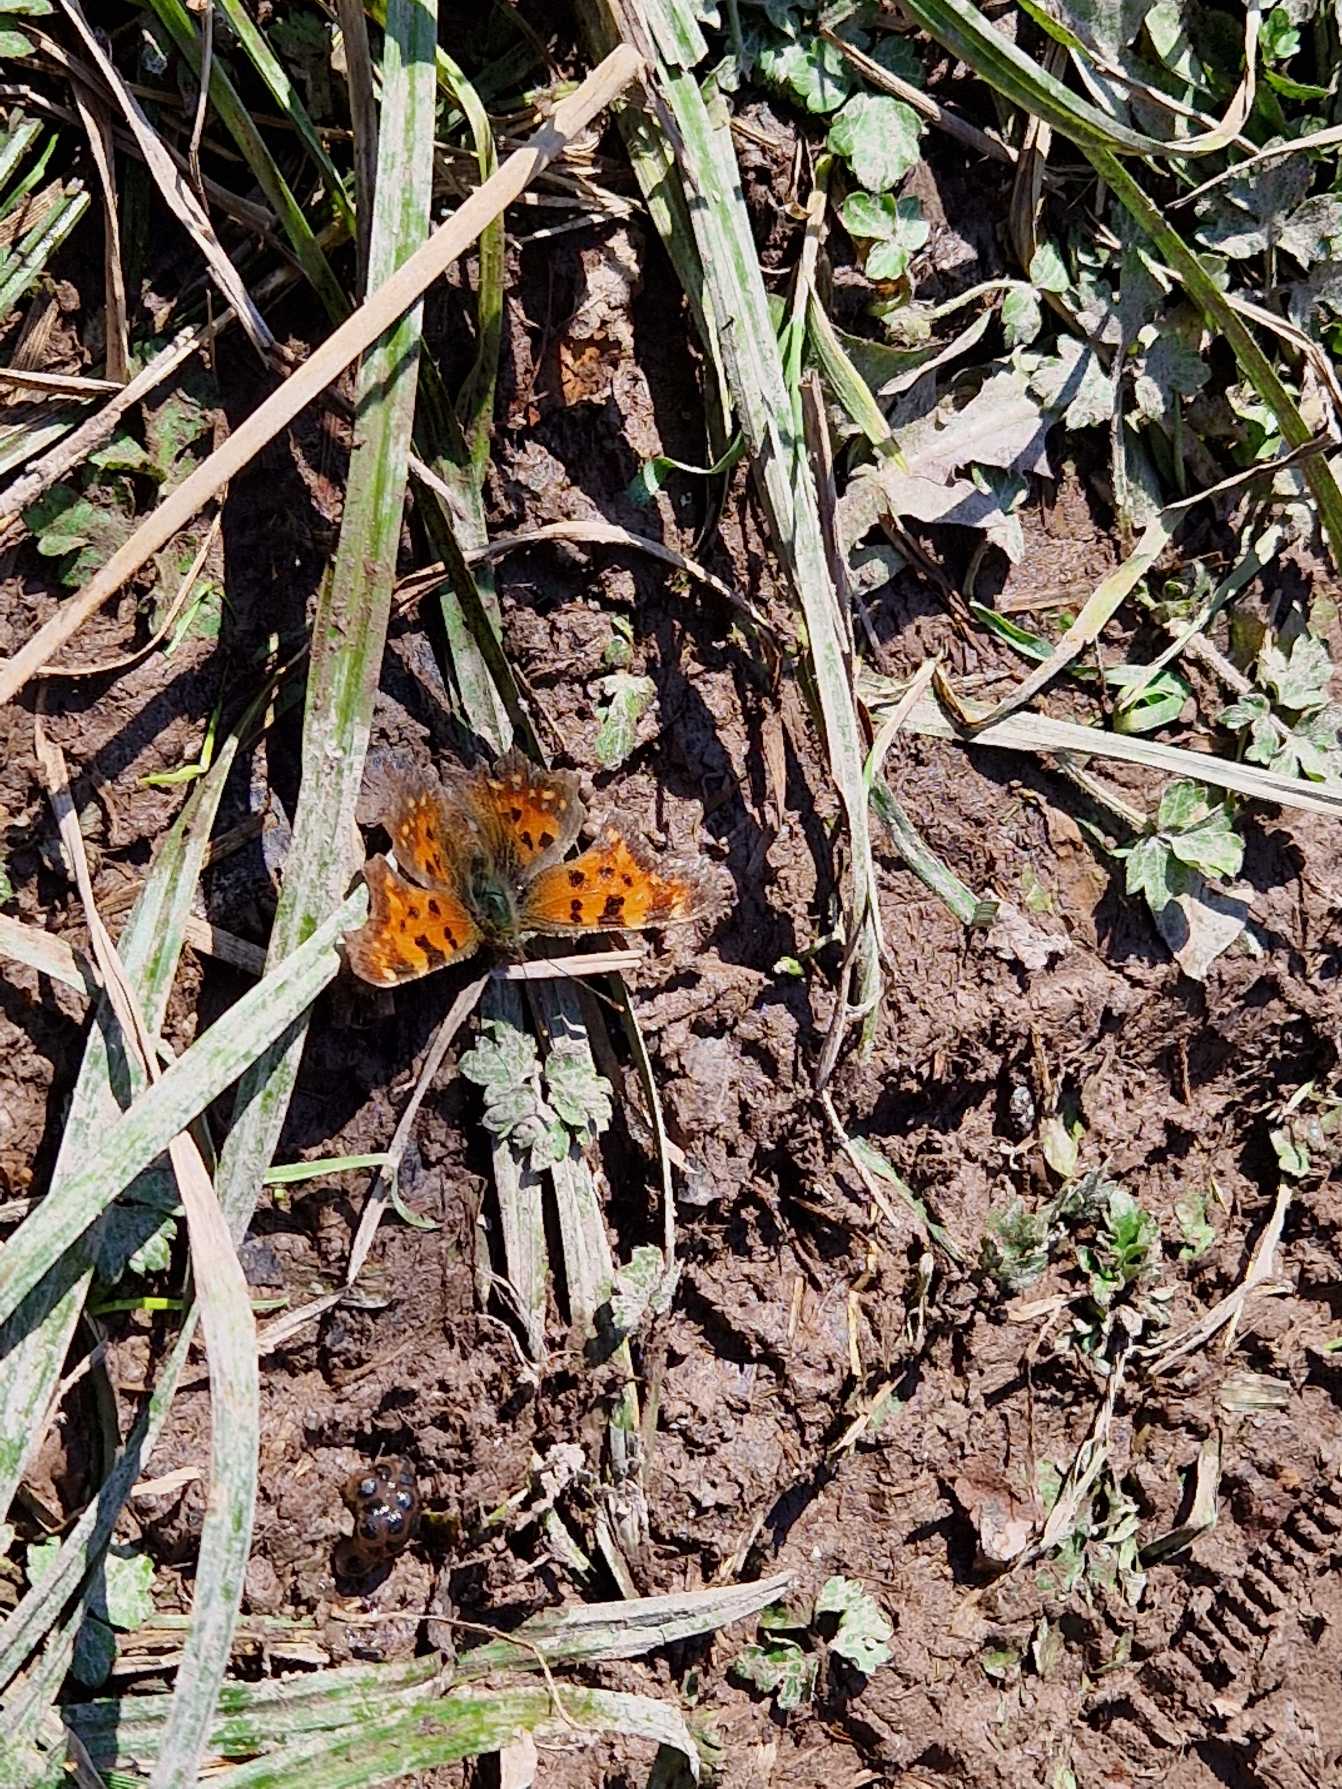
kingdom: Animalia
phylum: Arthropoda
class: Insecta
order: Lepidoptera
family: Nymphalidae
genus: Polygonia
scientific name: Polygonia c-album
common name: Det hvide C
